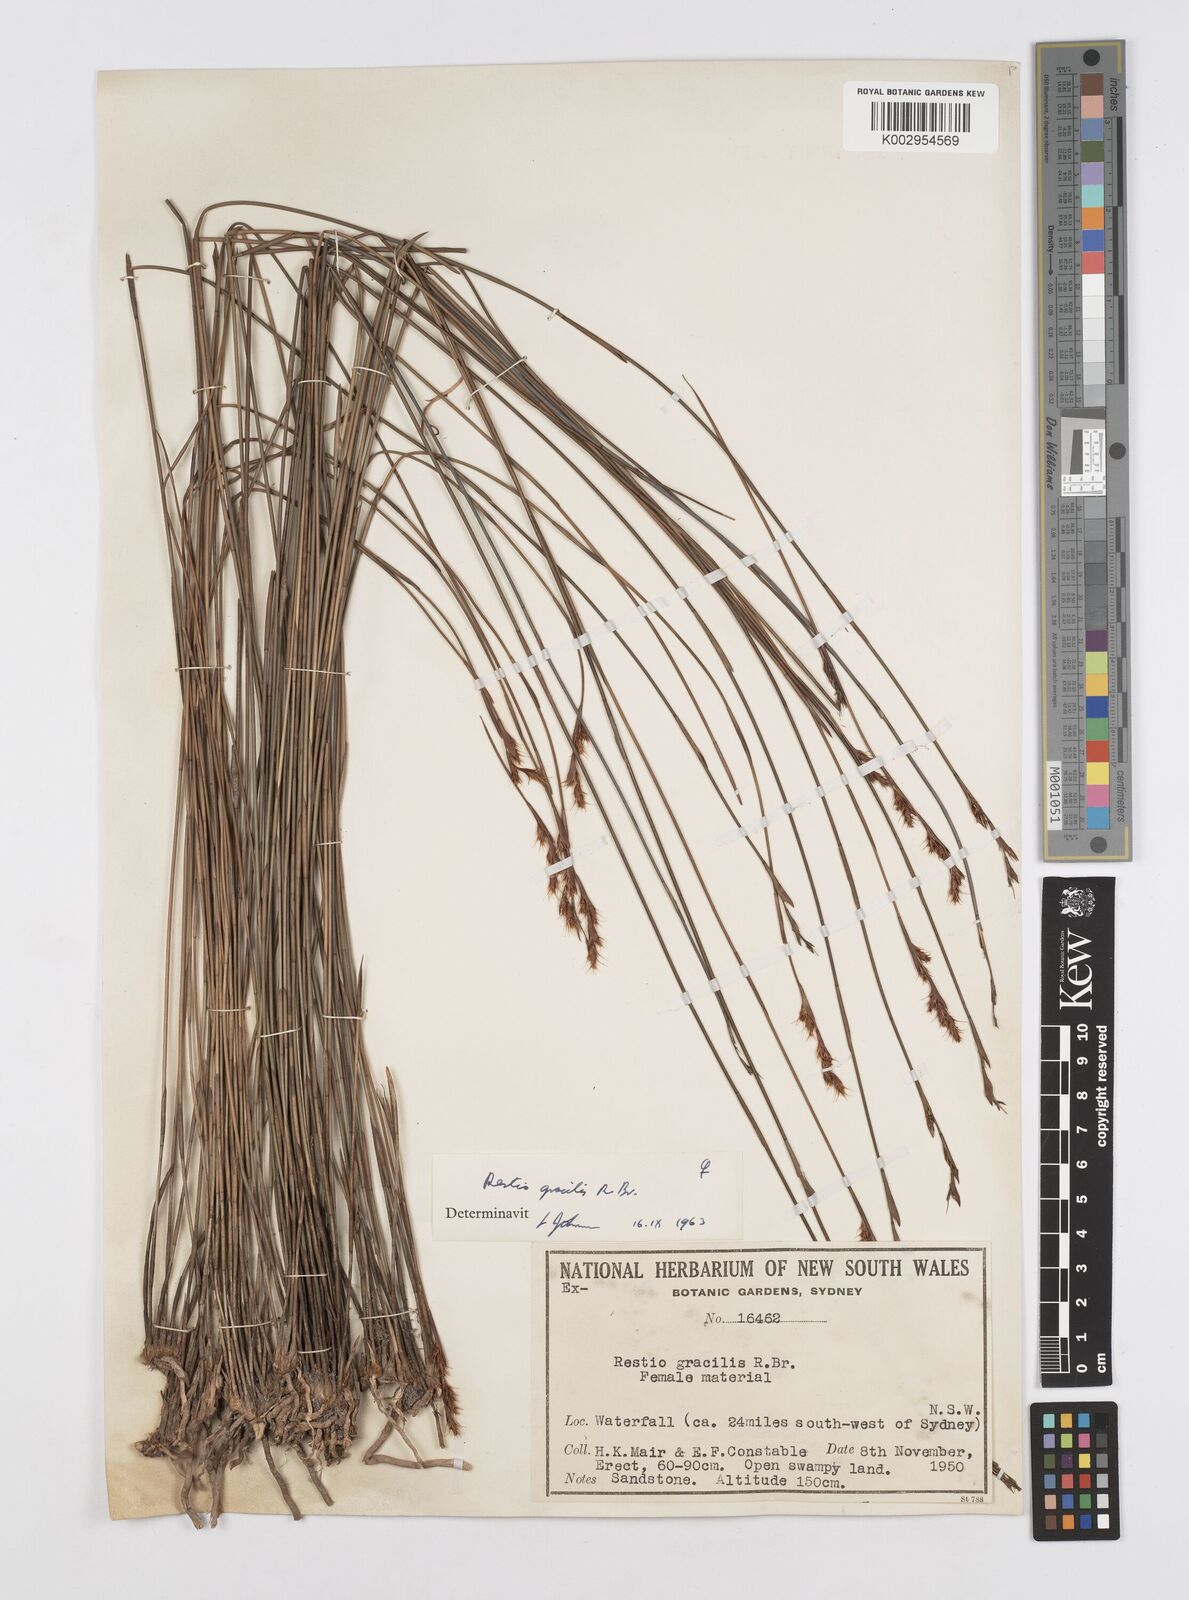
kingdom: Plantae
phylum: Tracheophyta
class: Liliopsida
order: Poales
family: Restionaceae
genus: Baloskion
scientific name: Baloskion gracile
